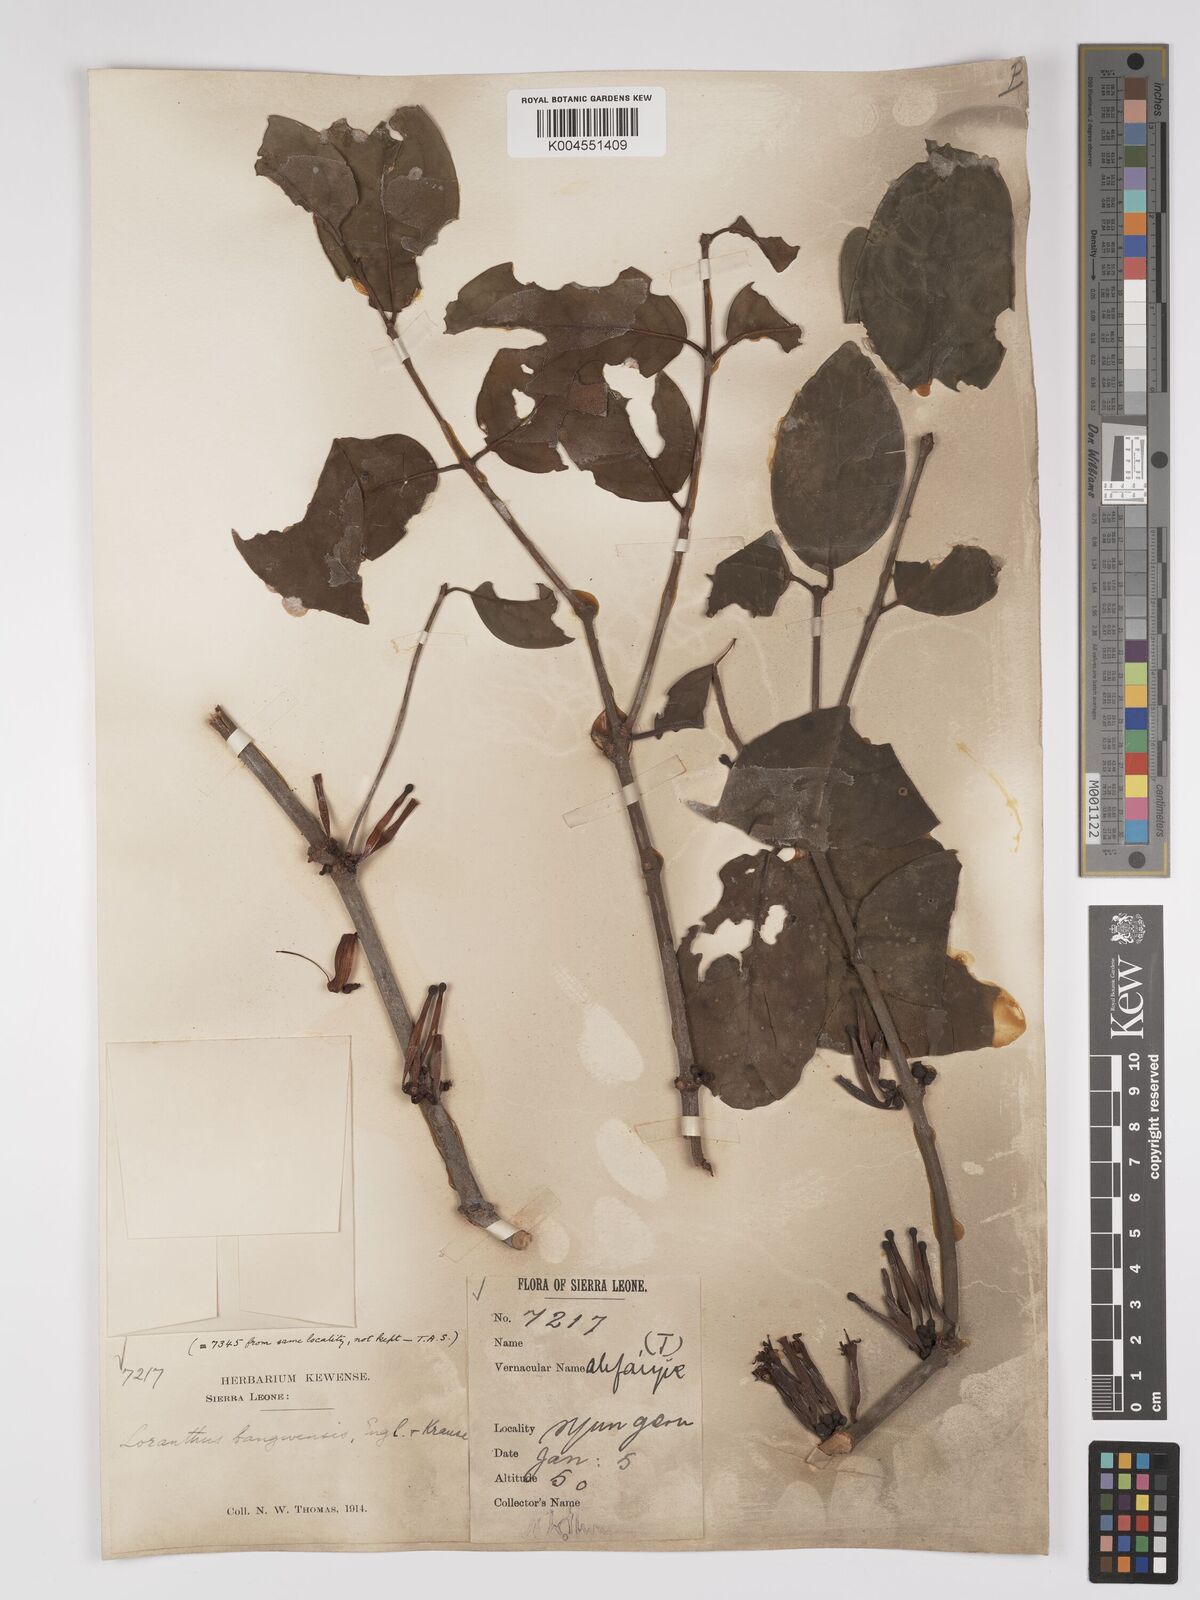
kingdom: Plantae
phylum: Tracheophyta
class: Magnoliopsida
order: Santalales
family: Loranthaceae
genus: Tapinanthus
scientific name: Tapinanthus bangwensis
